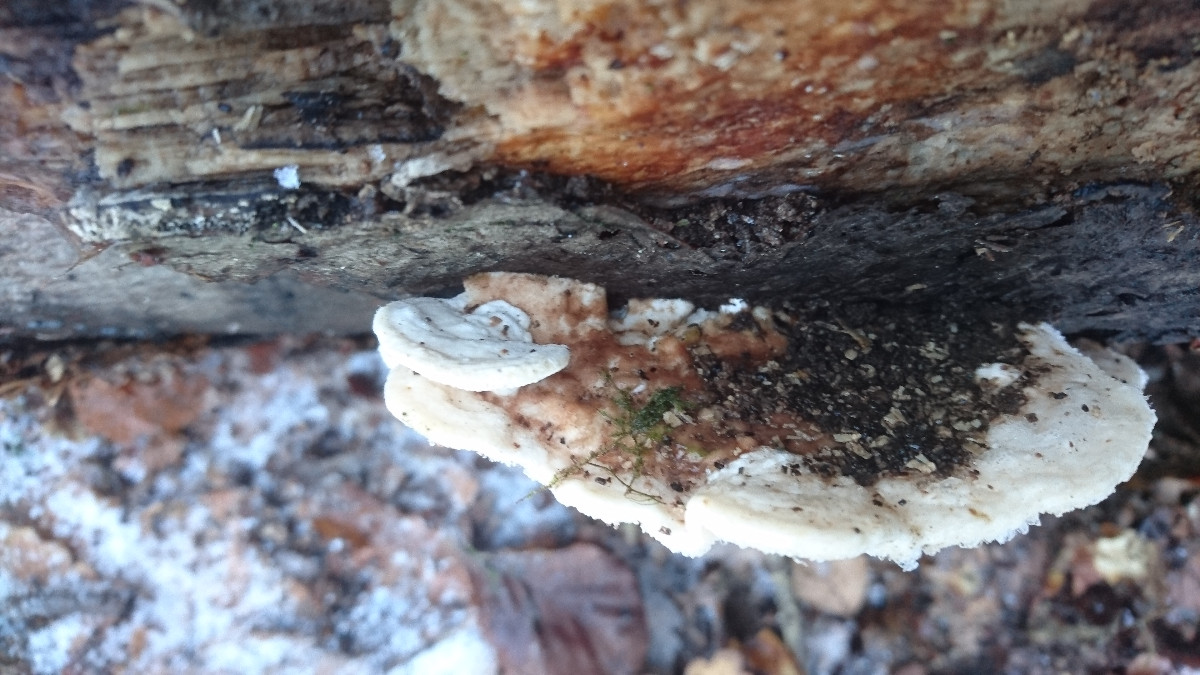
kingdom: Fungi
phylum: Basidiomycota
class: Agaricomycetes
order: Polyporales
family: Polyporaceae
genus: Trametes
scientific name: Trametes gibbosa
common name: puklet læderporesvamp
